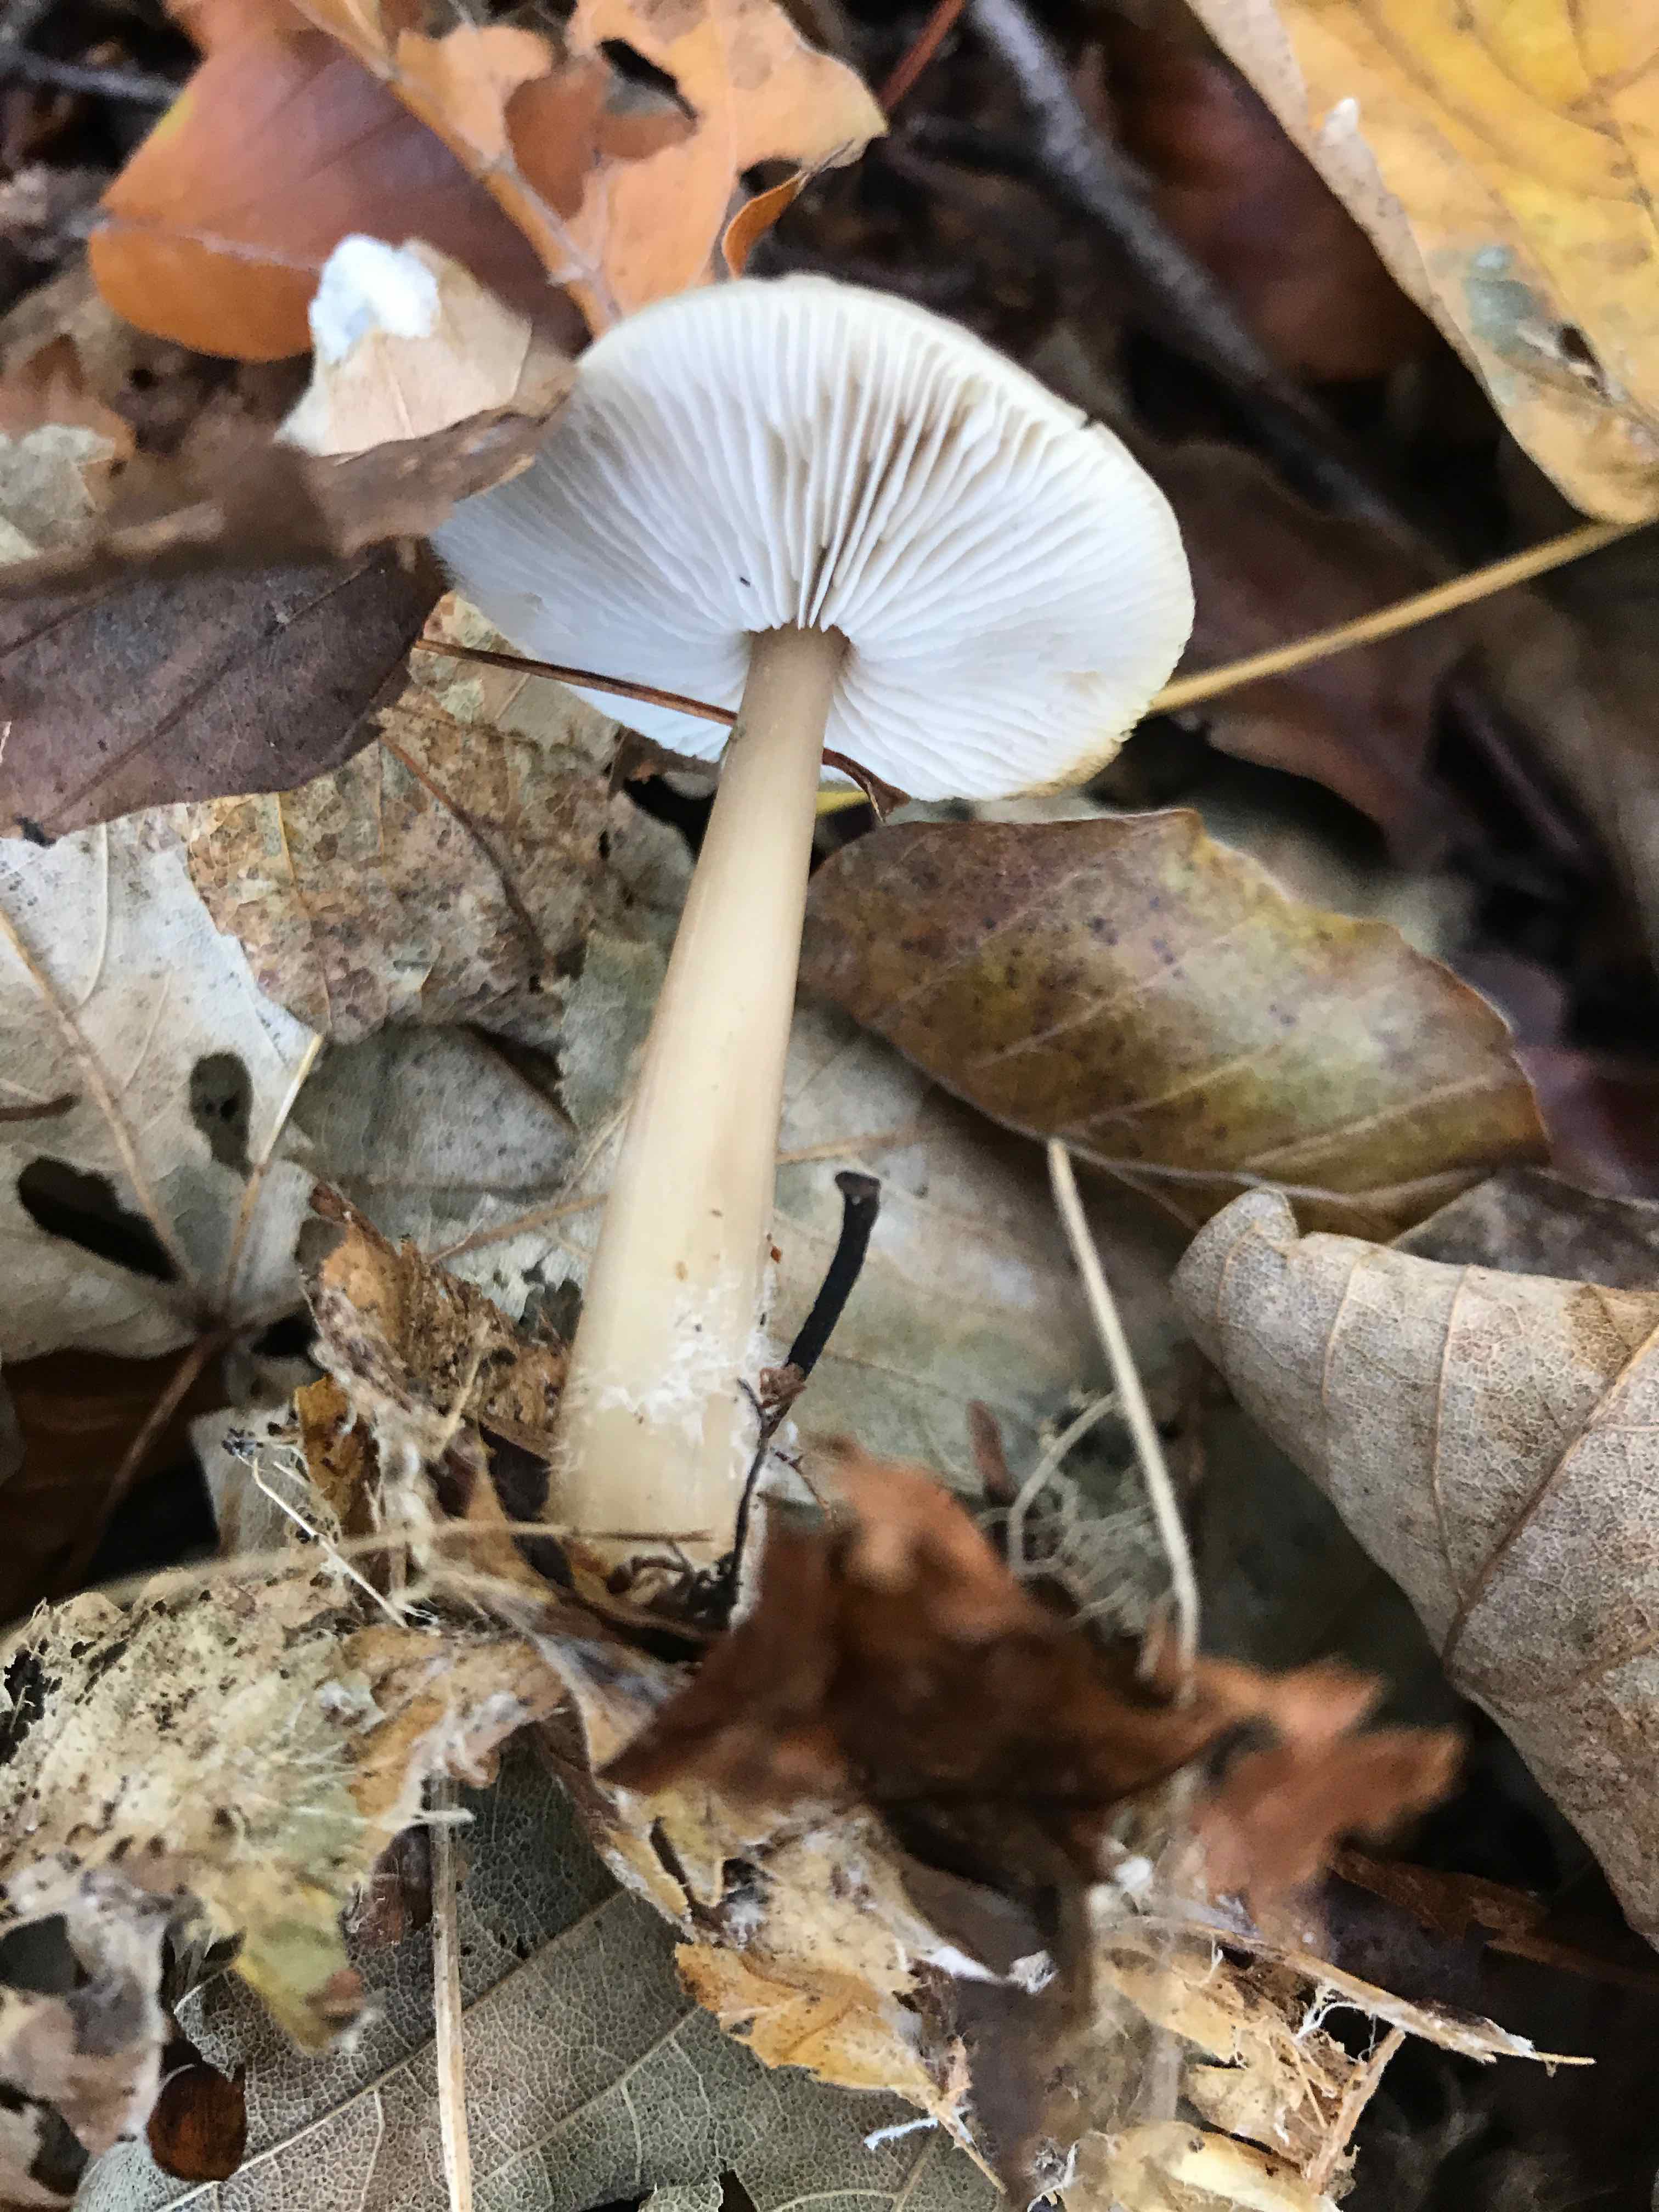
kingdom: Fungi
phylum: Basidiomycota
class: Agaricomycetes
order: Agaricales
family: Omphalotaceae
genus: Rhodocollybia
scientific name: Rhodocollybia asema
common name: horngrå fladhat
